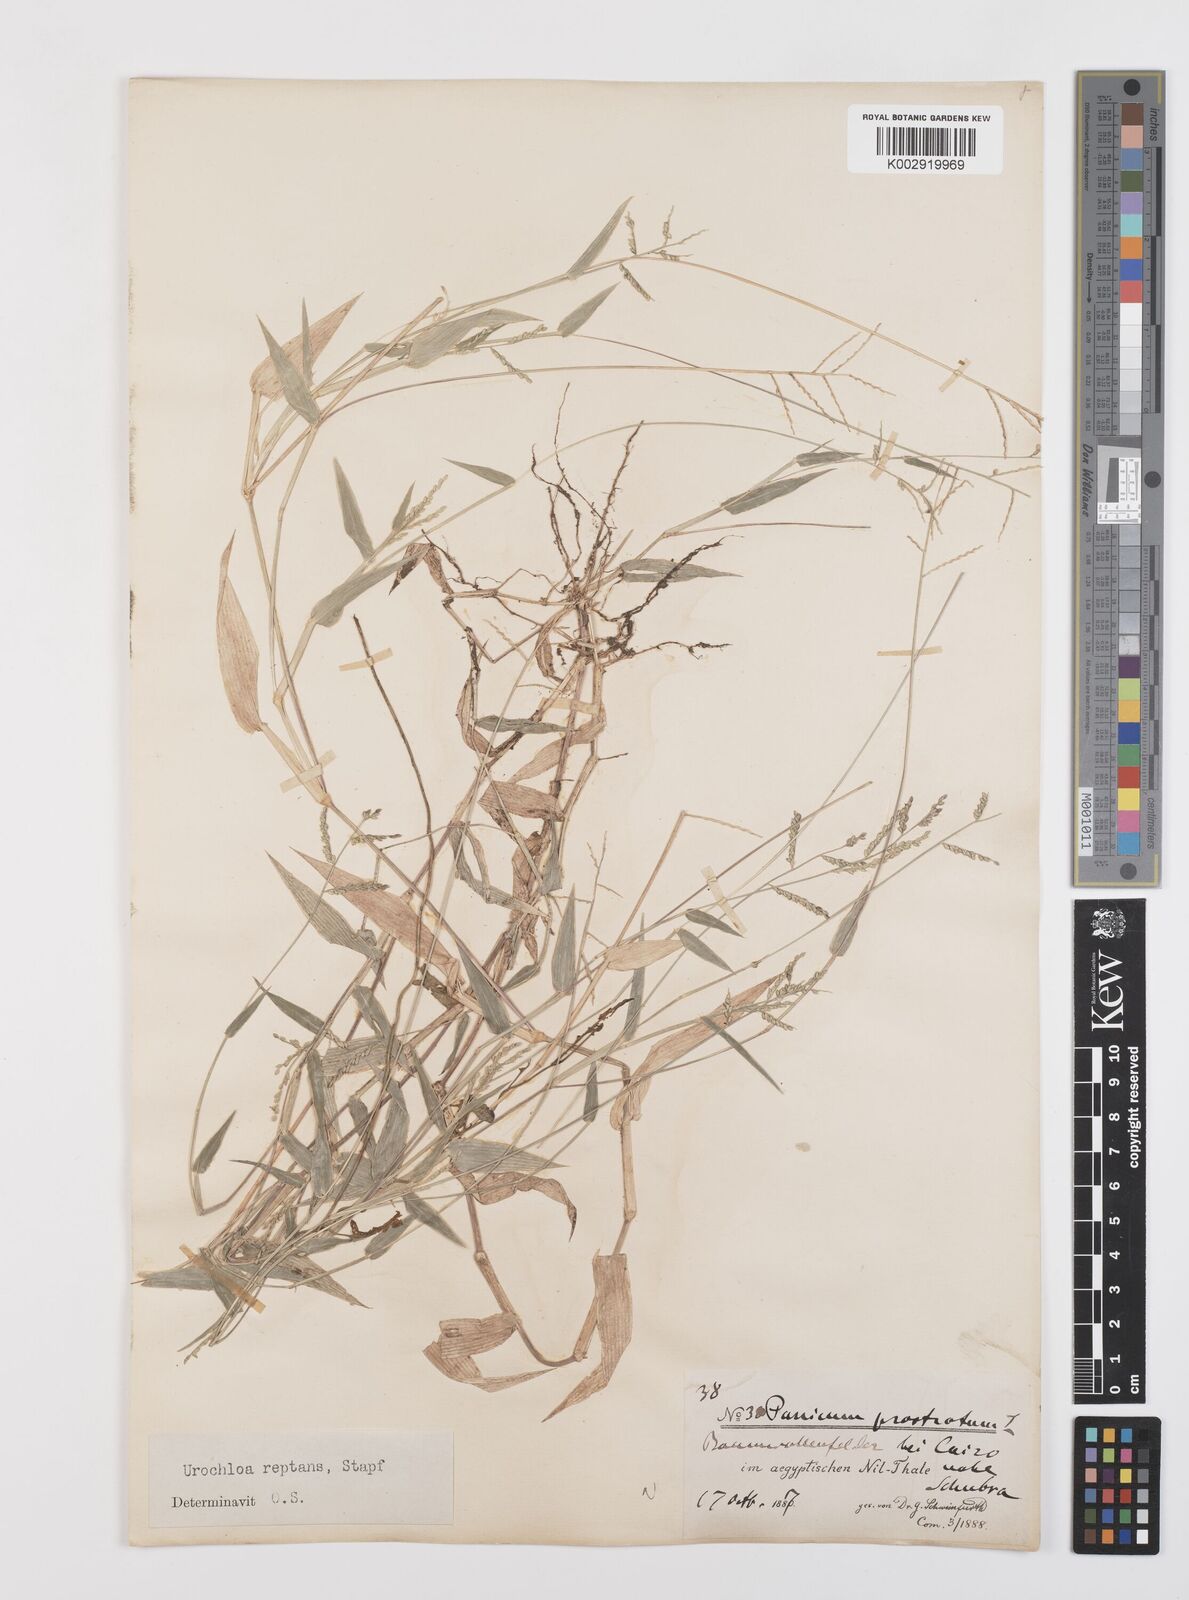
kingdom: Plantae
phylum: Tracheophyta
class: Liliopsida
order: Poales
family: Poaceae
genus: Urochloa
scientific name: Urochloa reptans
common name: Sprawling signalgrass
